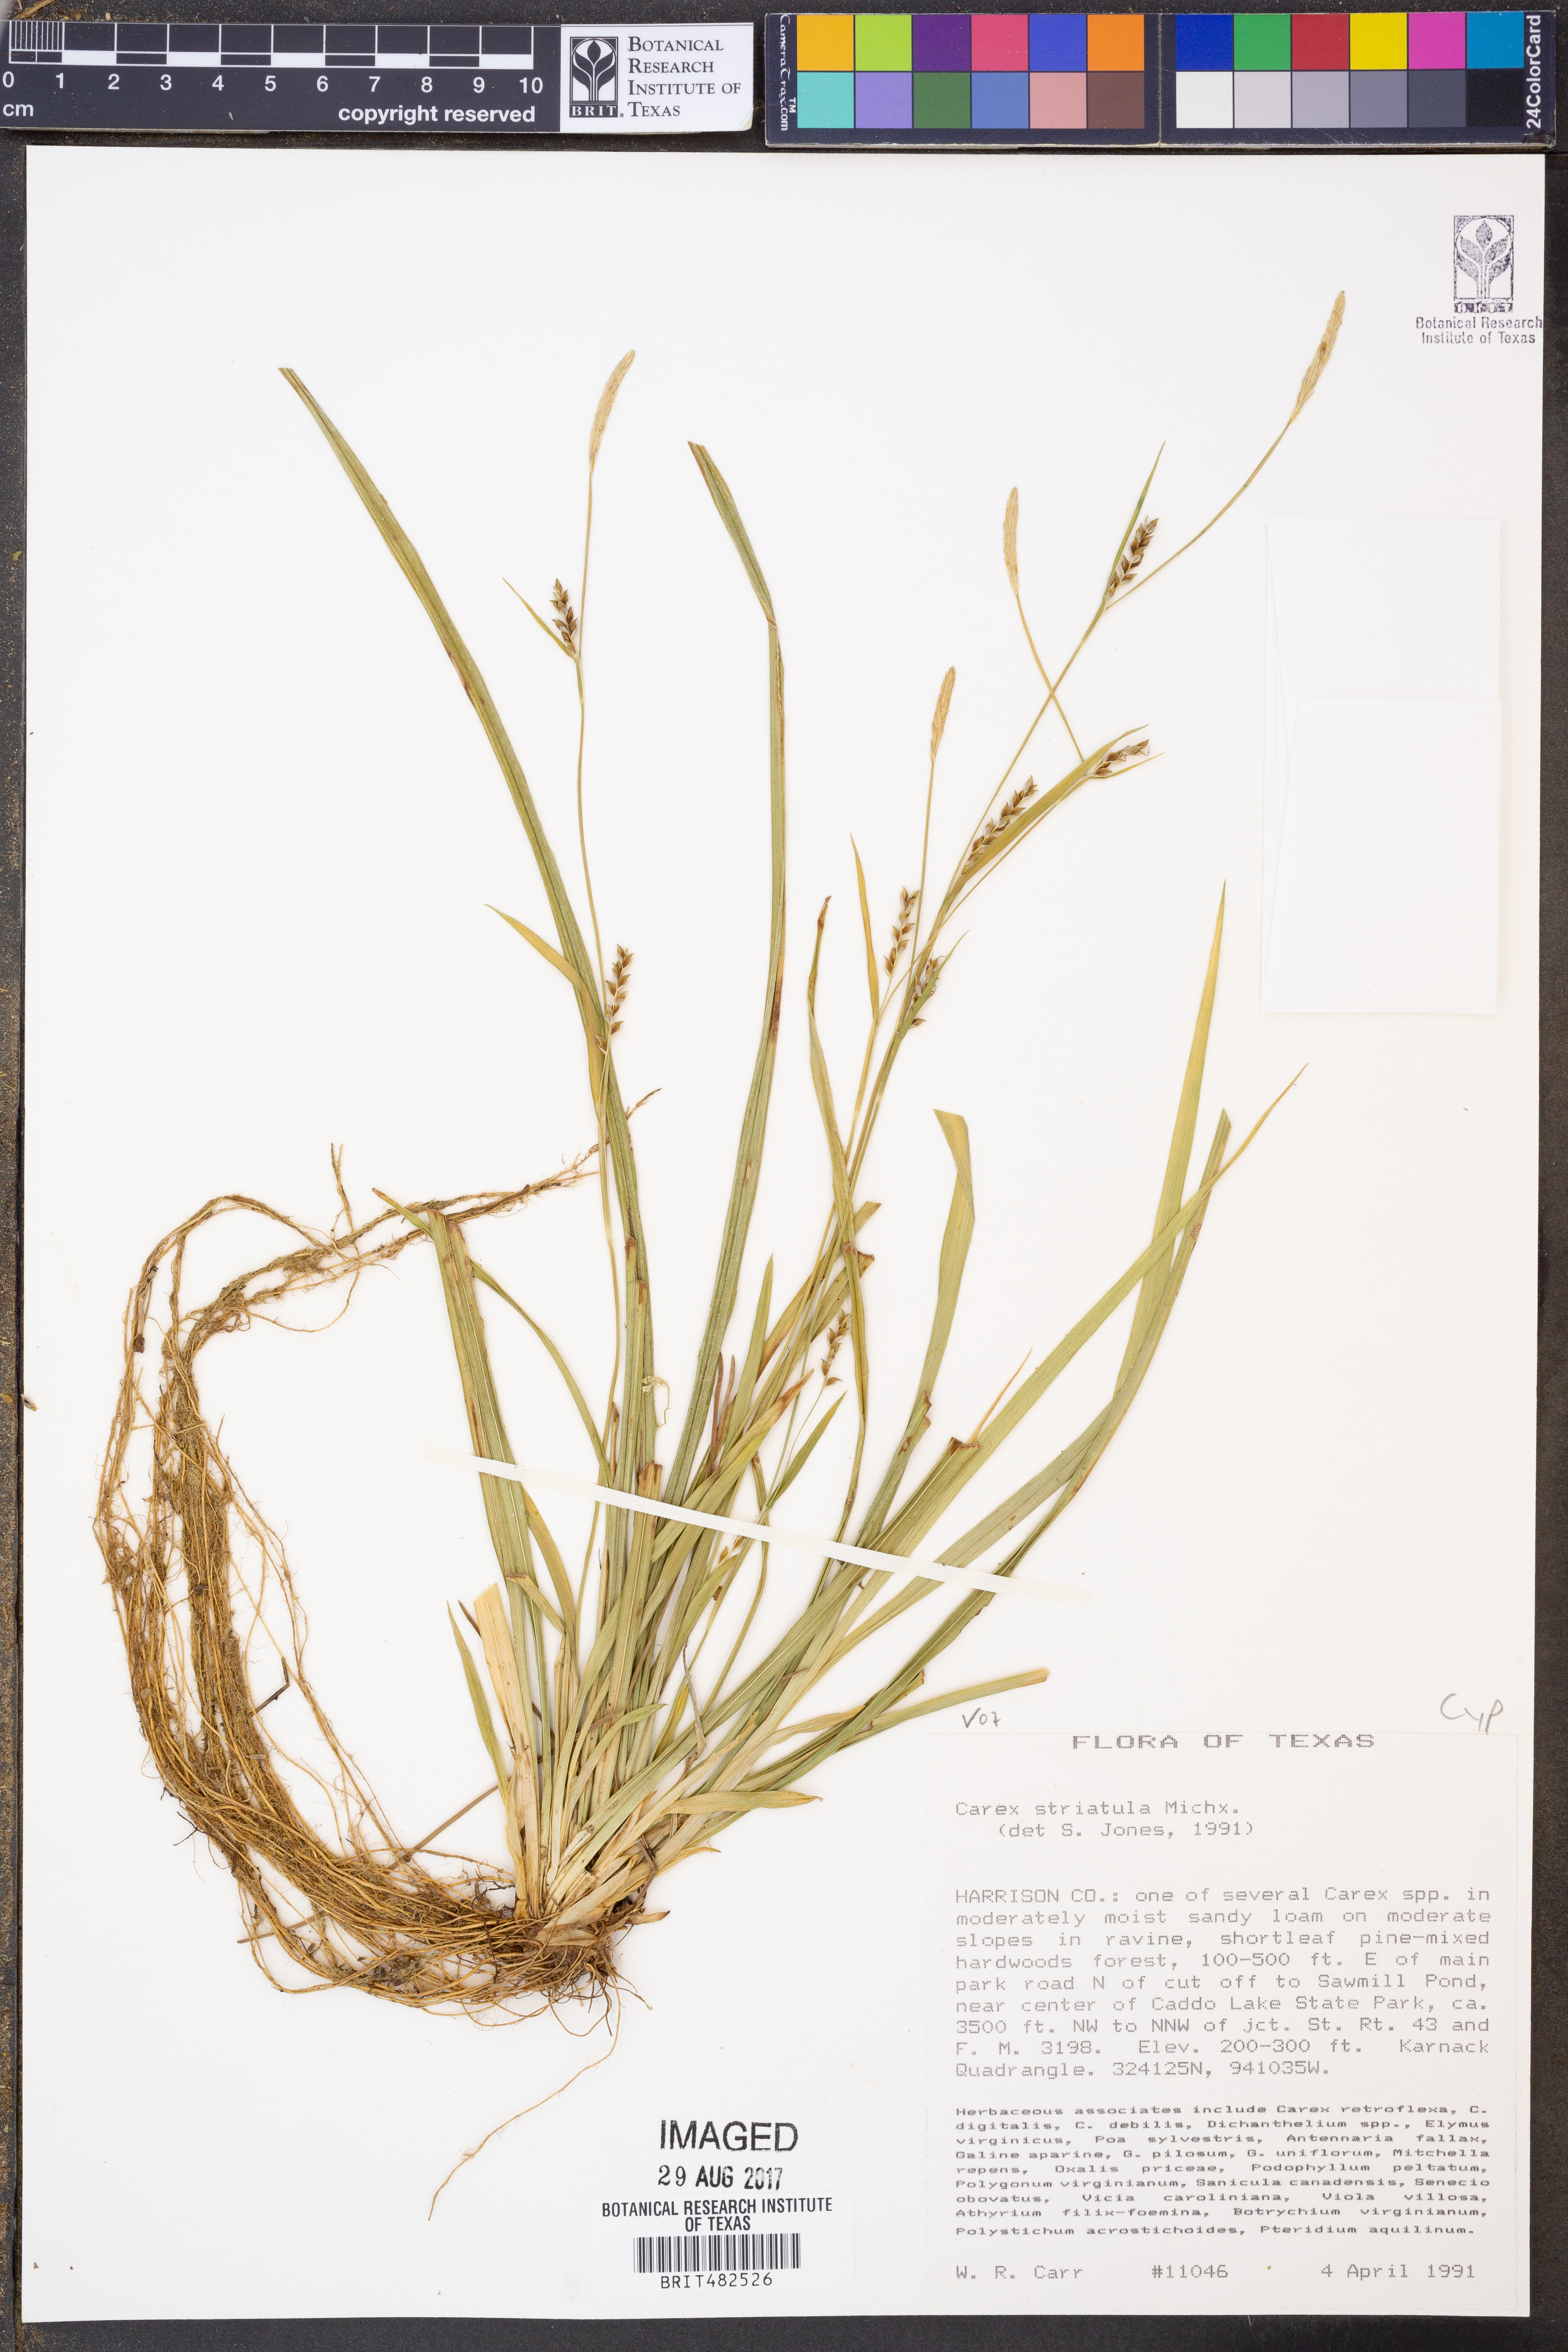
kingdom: Plantae
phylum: Tracheophyta
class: Liliopsida
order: Poales
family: Cyperaceae
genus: Carex
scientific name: Carex striatula
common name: Lined sedge
